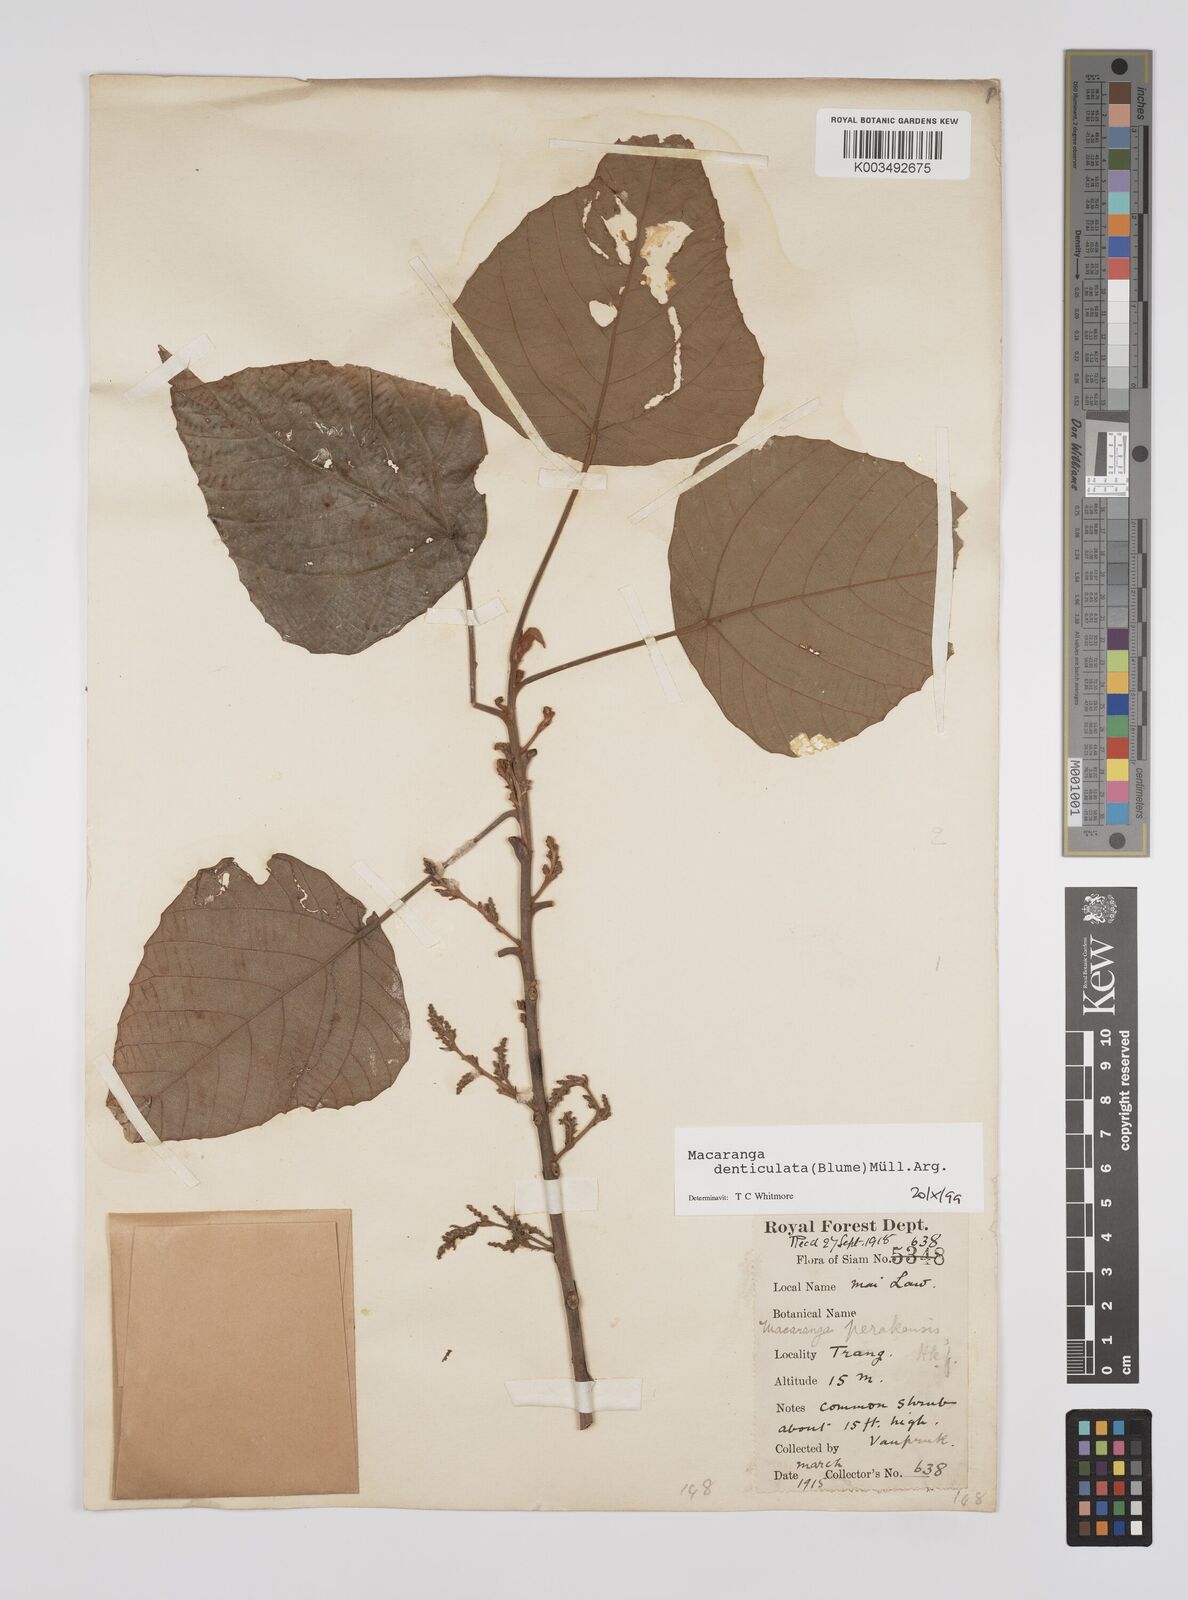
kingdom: Plantae
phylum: Tracheophyta
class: Magnoliopsida
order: Malpighiales
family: Euphorbiaceae
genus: Macaranga
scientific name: Macaranga denticulata
